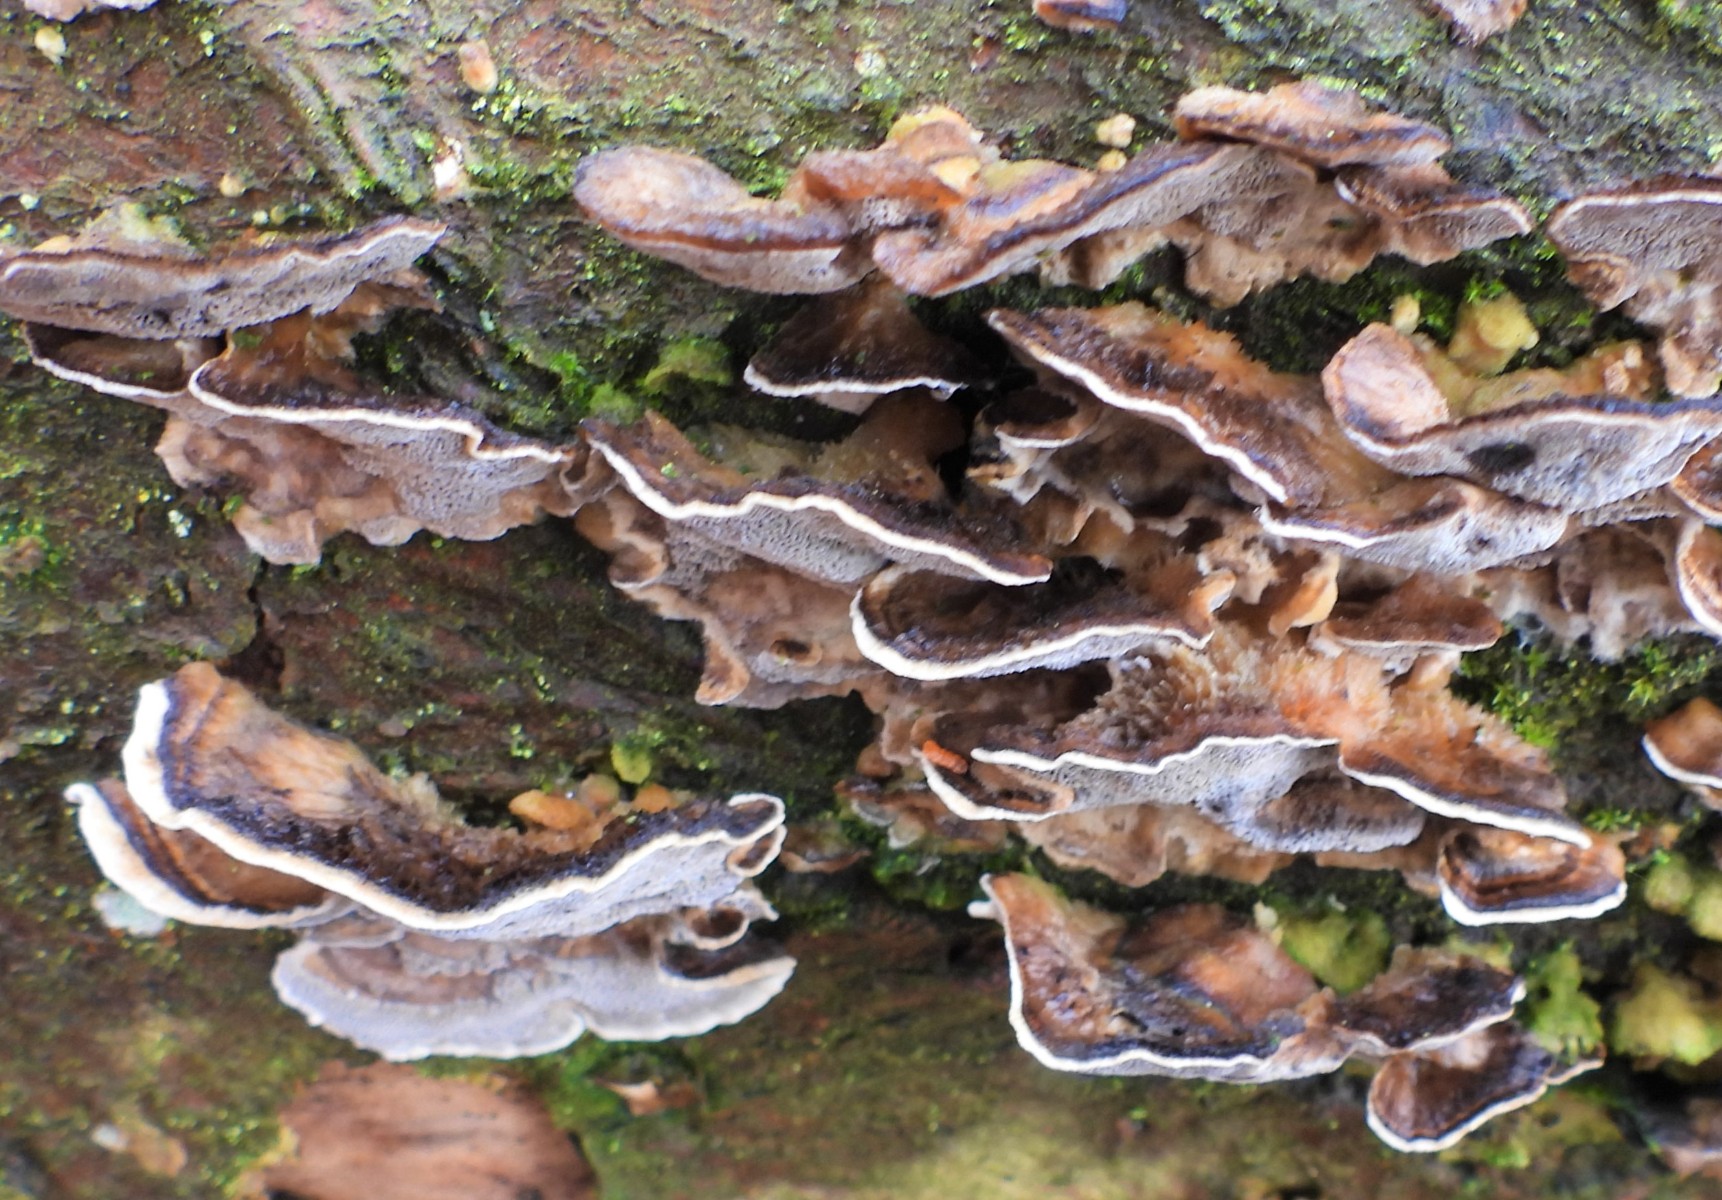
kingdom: Fungi
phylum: Basidiomycota
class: Agaricomycetes
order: Polyporales
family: Phanerochaetaceae
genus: Bjerkandera
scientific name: Bjerkandera adusta
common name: sveden sodporesvamp
